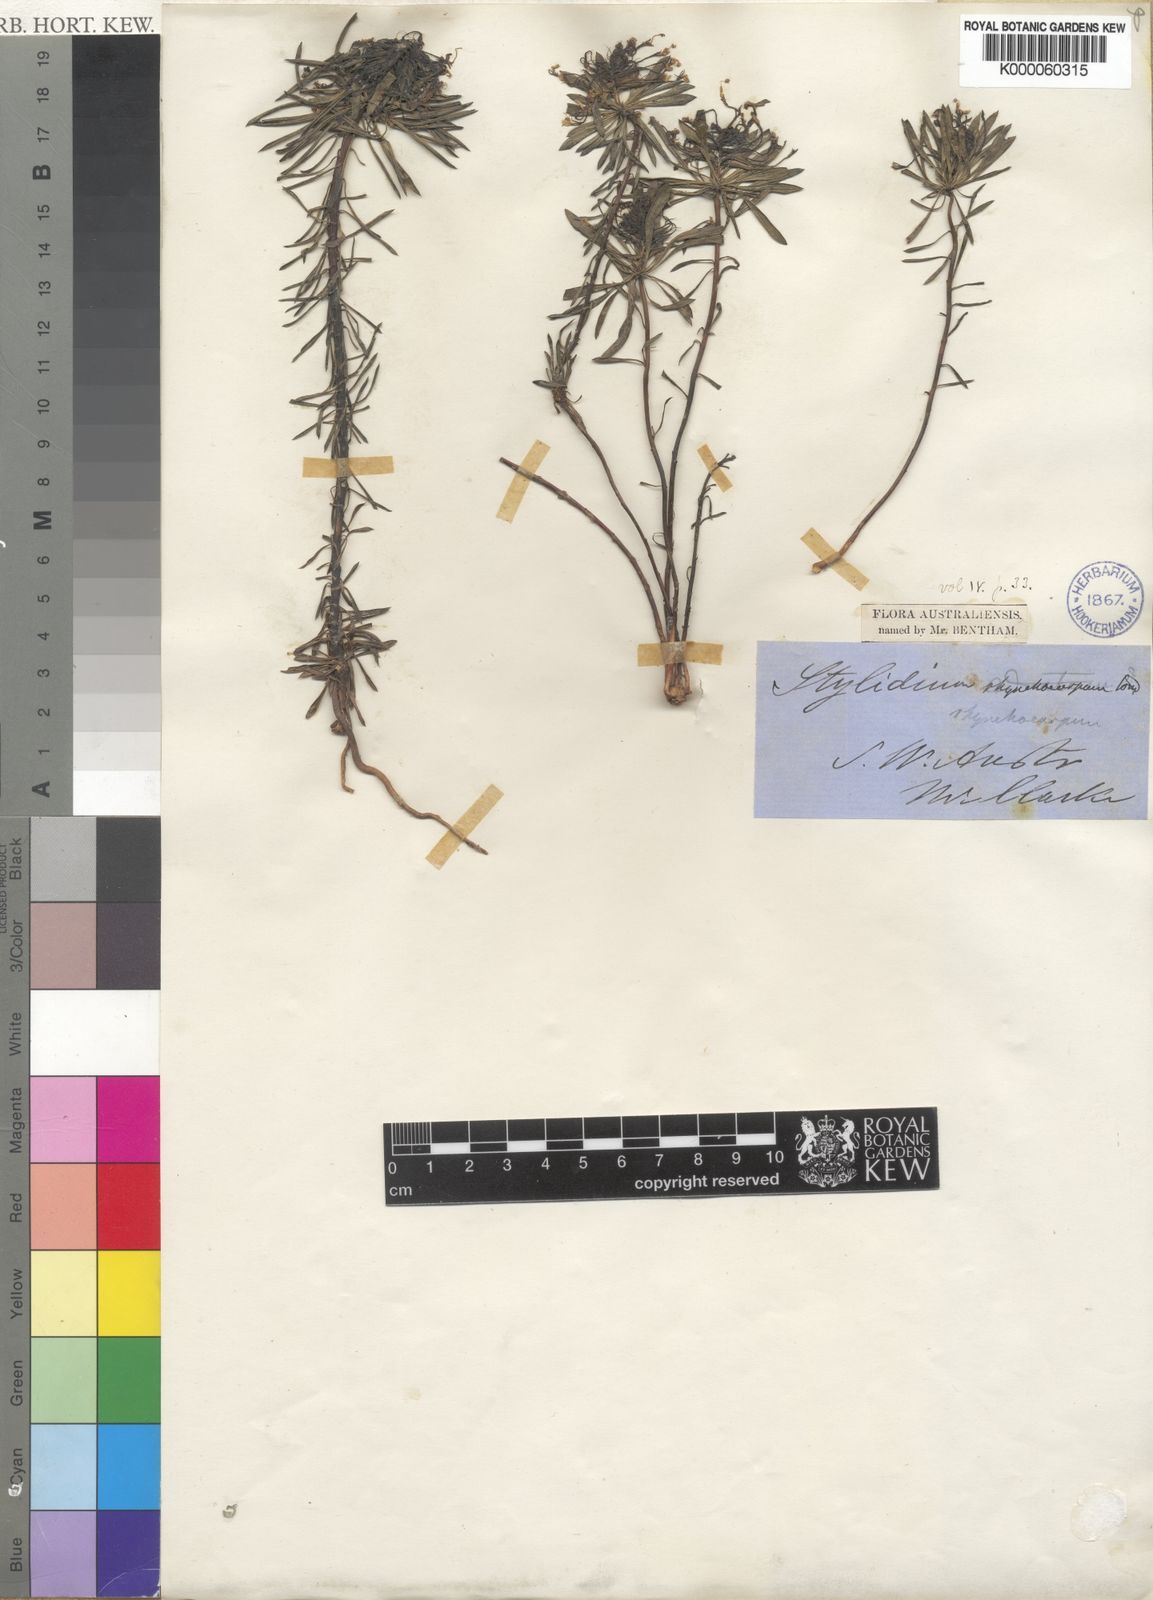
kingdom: Plantae
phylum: Tracheophyta
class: Magnoliopsida
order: Asterales
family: Stylidiaceae
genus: Stylidium
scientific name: Stylidium rhynchocarpum
